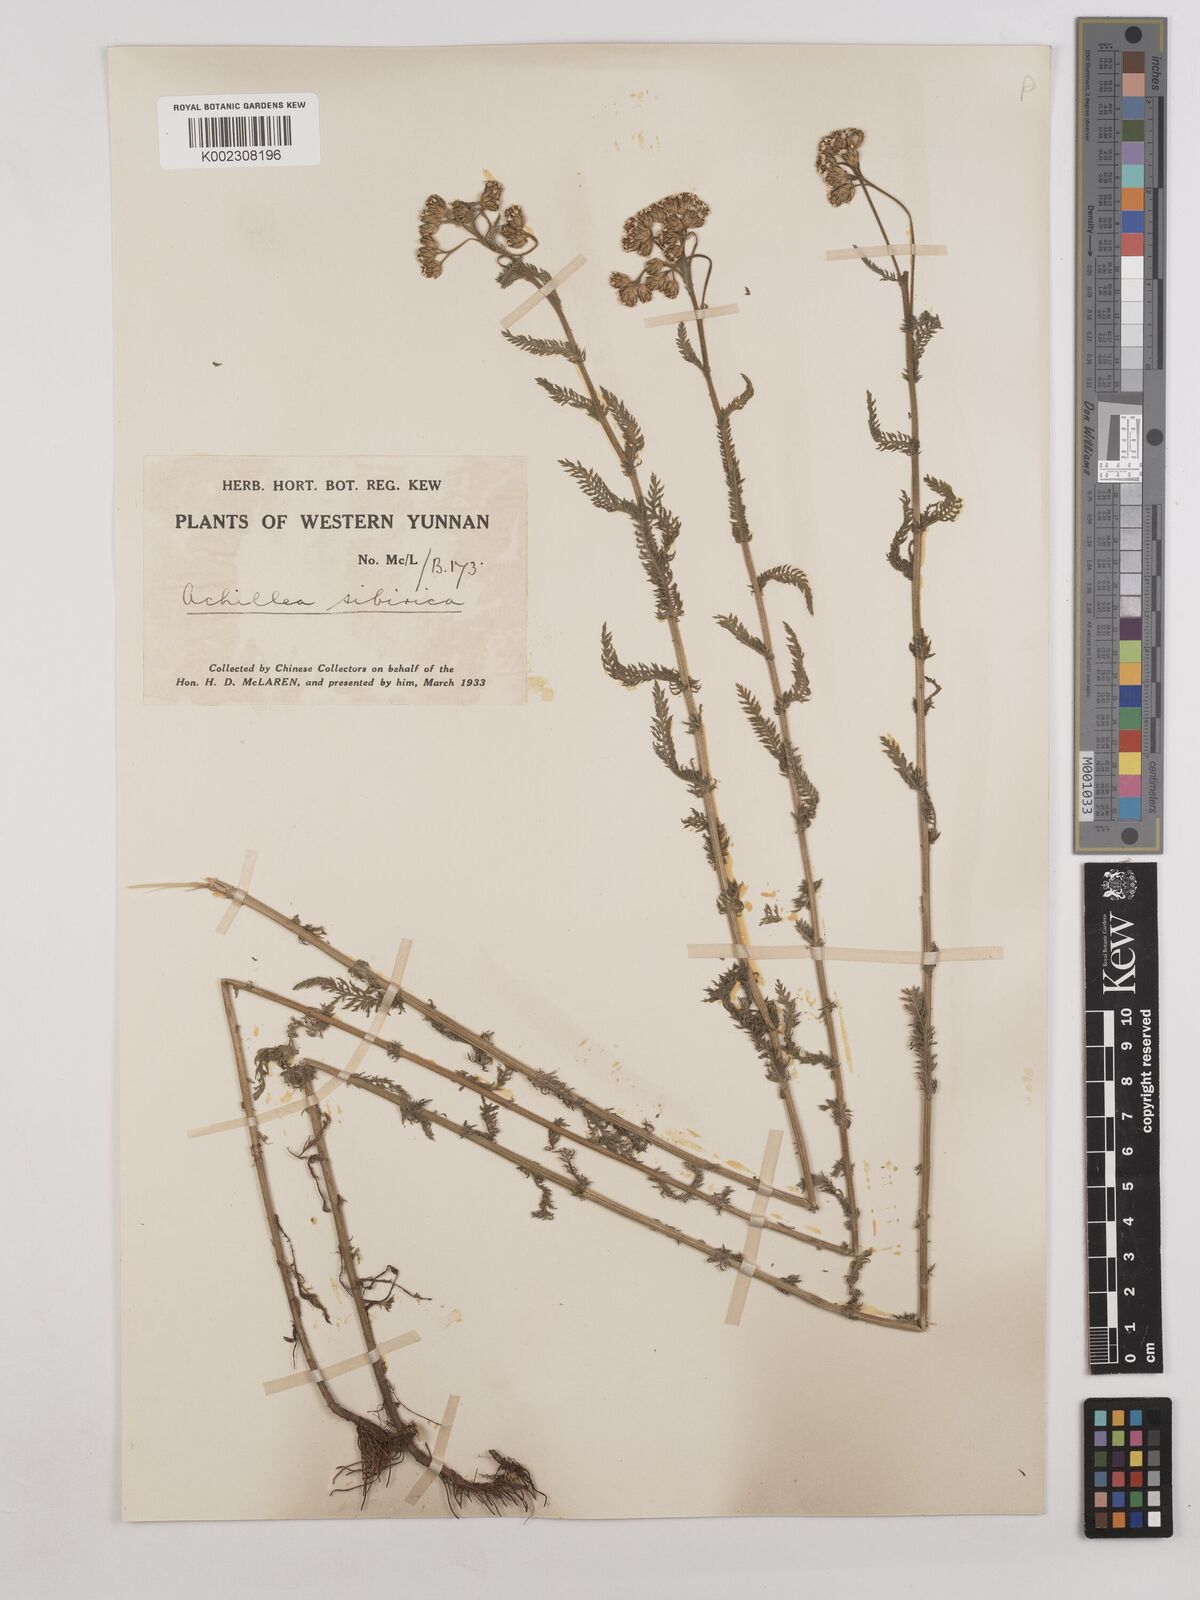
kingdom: Plantae
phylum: Tracheophyta
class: Magnoliopsida
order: Asterales
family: Asteraceae
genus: Achillea
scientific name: Achillea alpina
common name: Siberian yarrow
